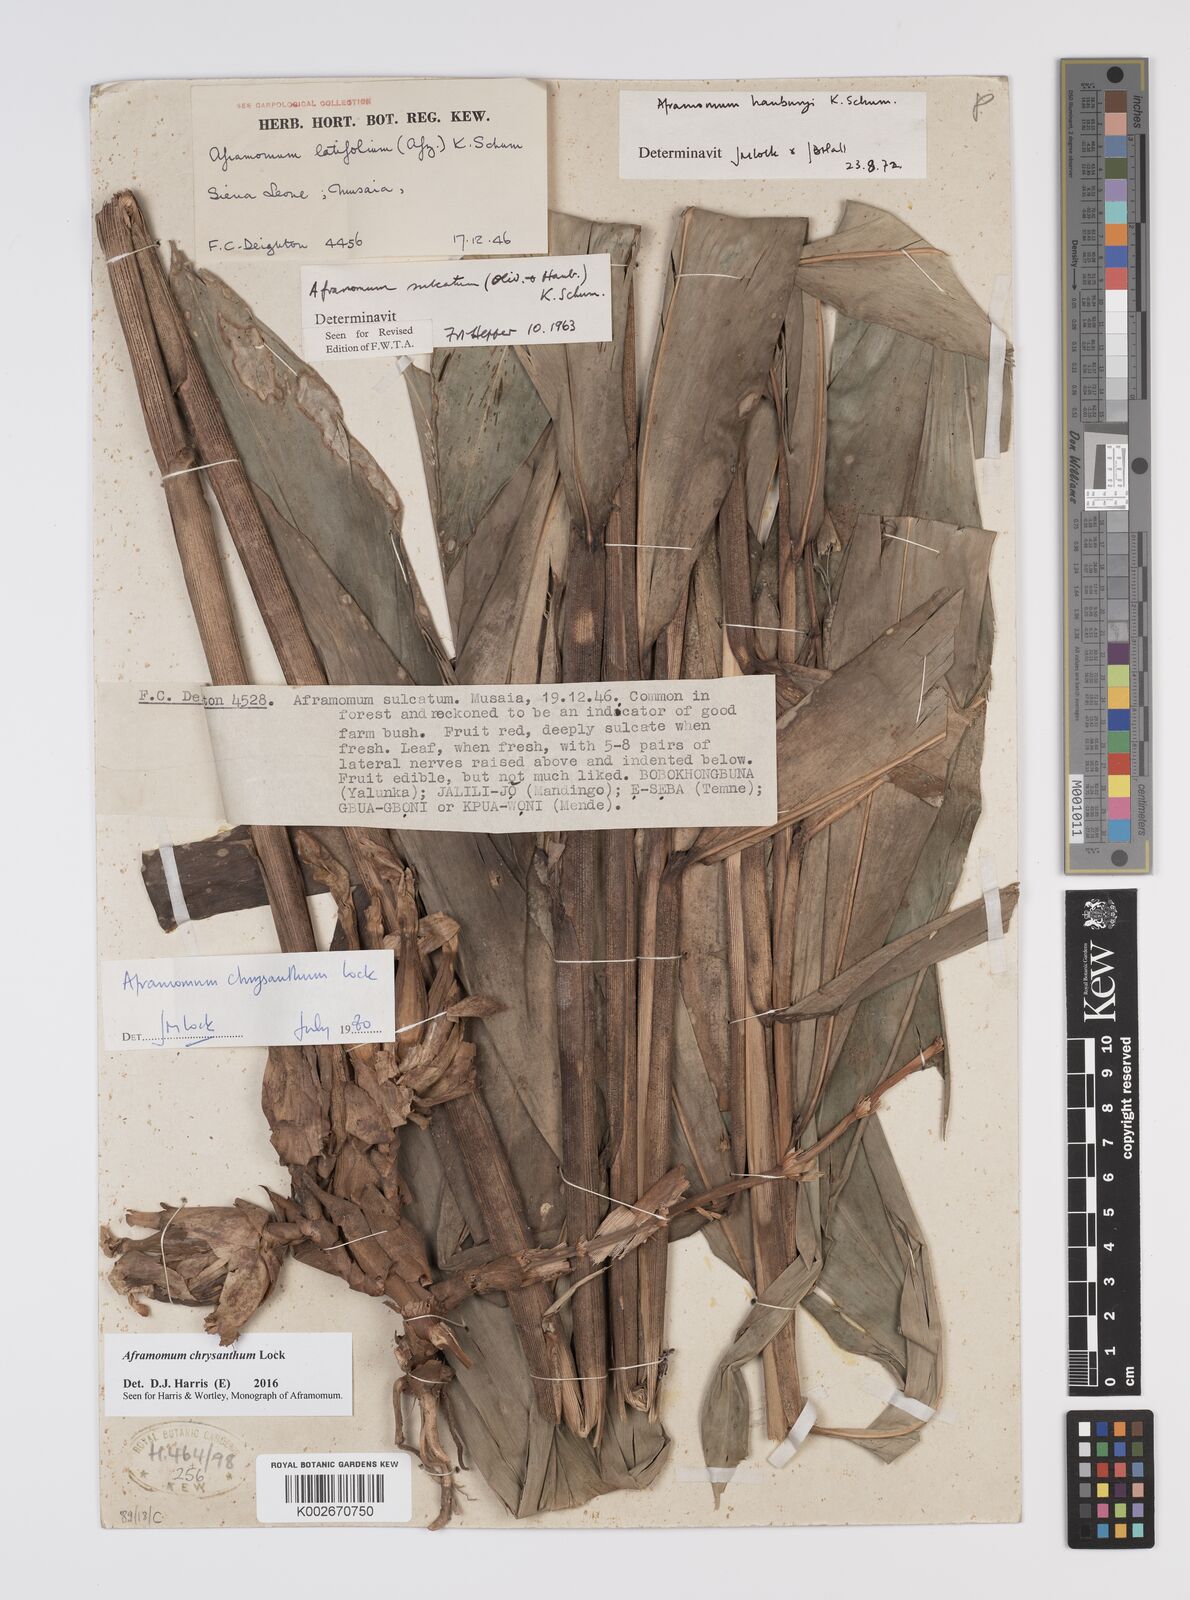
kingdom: Plantae
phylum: Tracheophyta
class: Liliopsida
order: Zingiberales
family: Zingiberaceae
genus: Aframomum
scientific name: Aframomum chrysanthum
